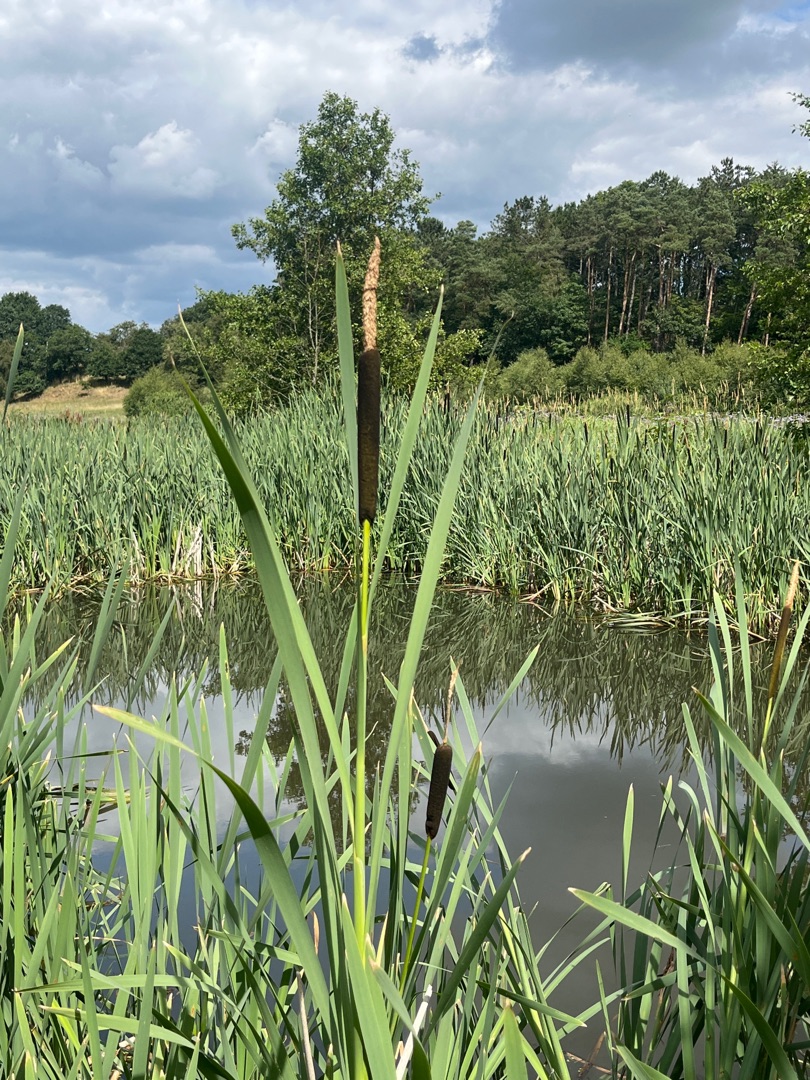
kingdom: Plantae
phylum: Tracheophyta
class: Liliopsida
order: Poales
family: Typhaceae
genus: Typha
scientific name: Typha latifolia
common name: Bredbladet dunhammer
